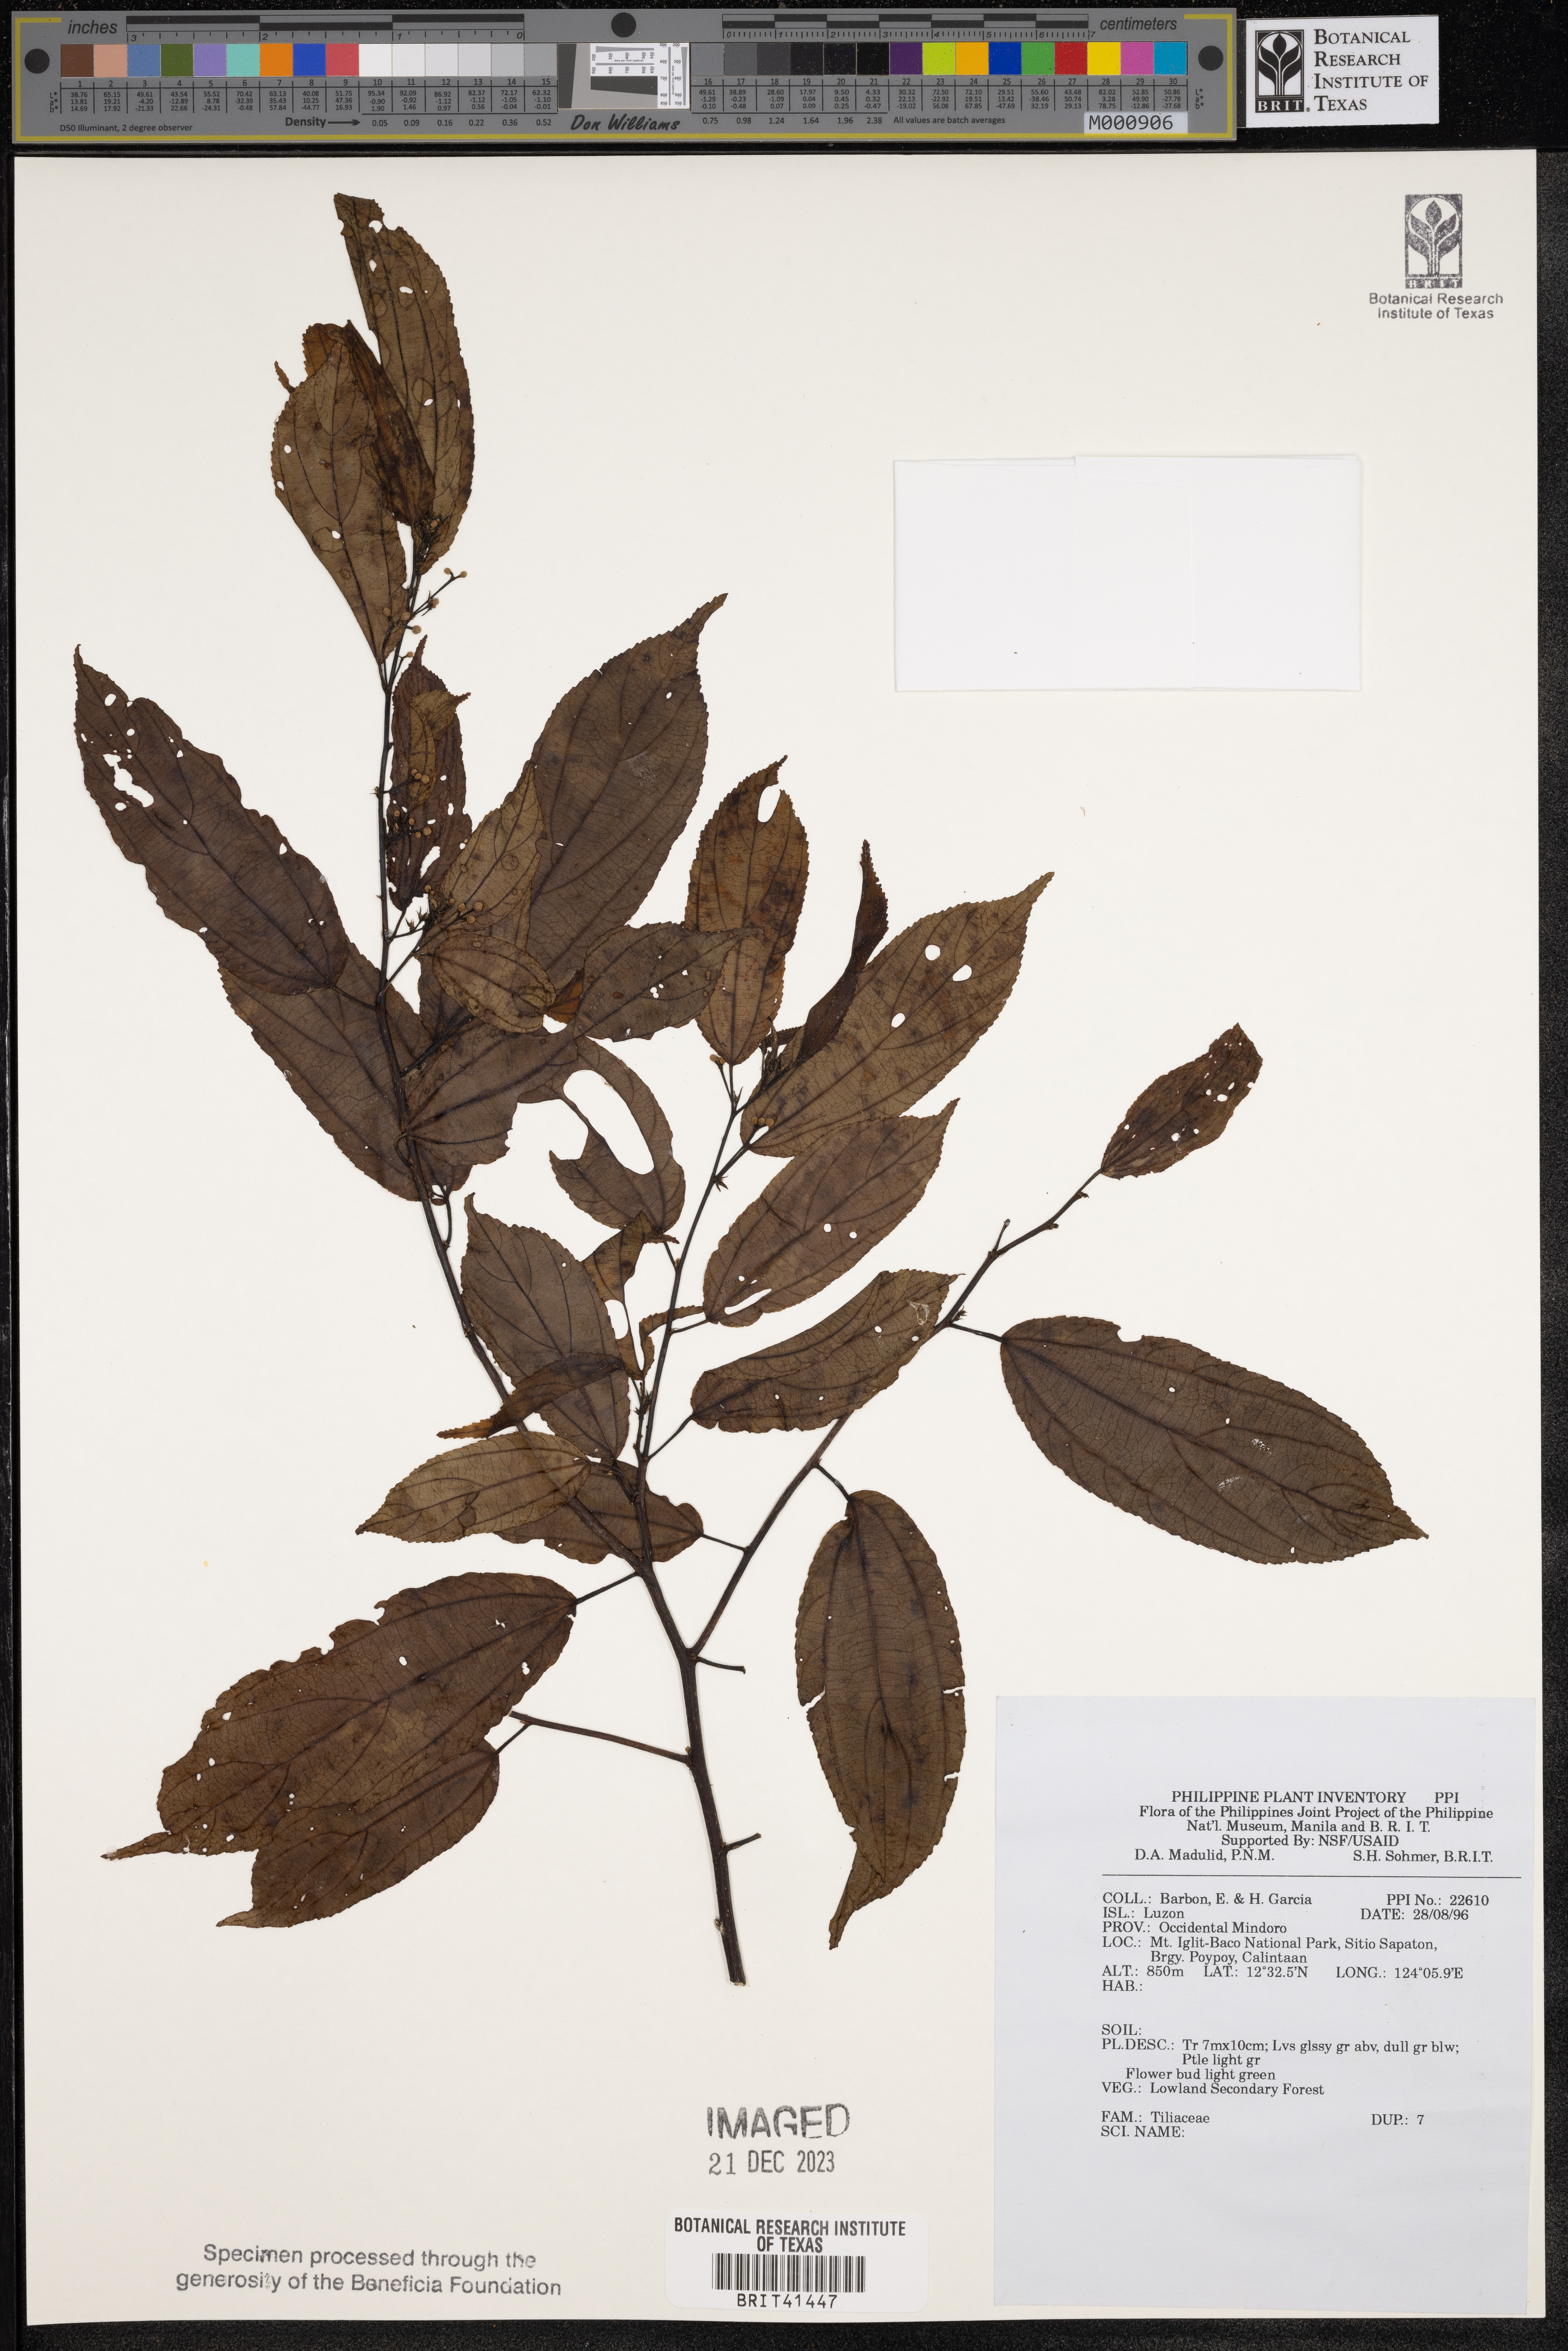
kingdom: Plantae
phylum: Tracheophyta
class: Magnoliopsida
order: Malvales
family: Tiliaceae
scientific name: Tiliaceae
